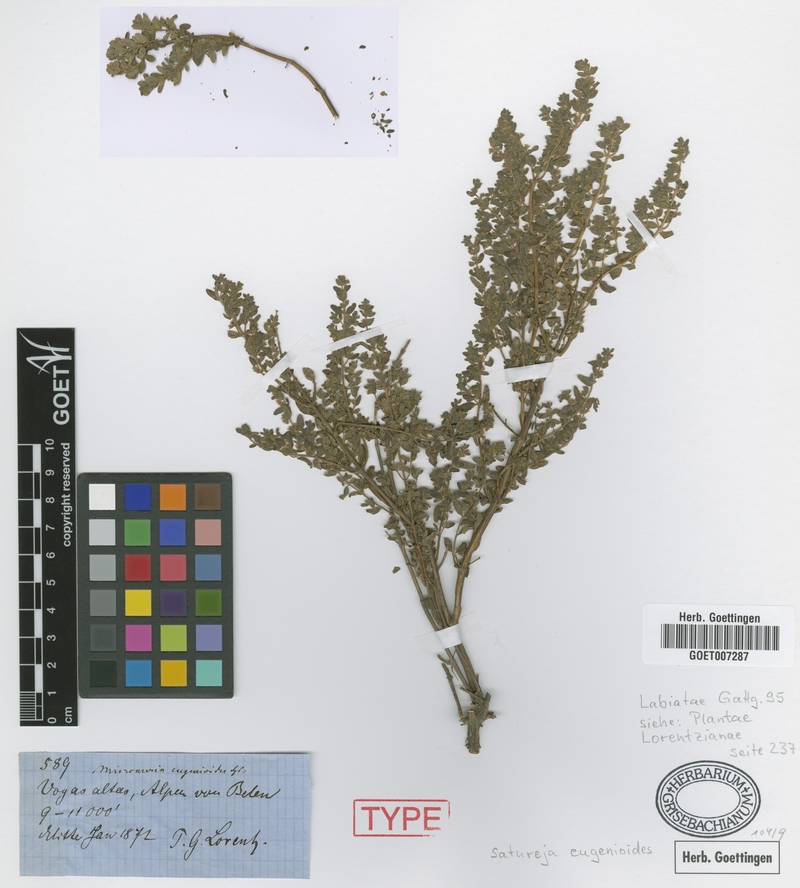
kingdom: Plantae
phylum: Tracheophyta
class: Magnoliopsida
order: Lamiales
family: Lamiaceae
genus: Clinopodium
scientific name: Clinopodium gilliesii
